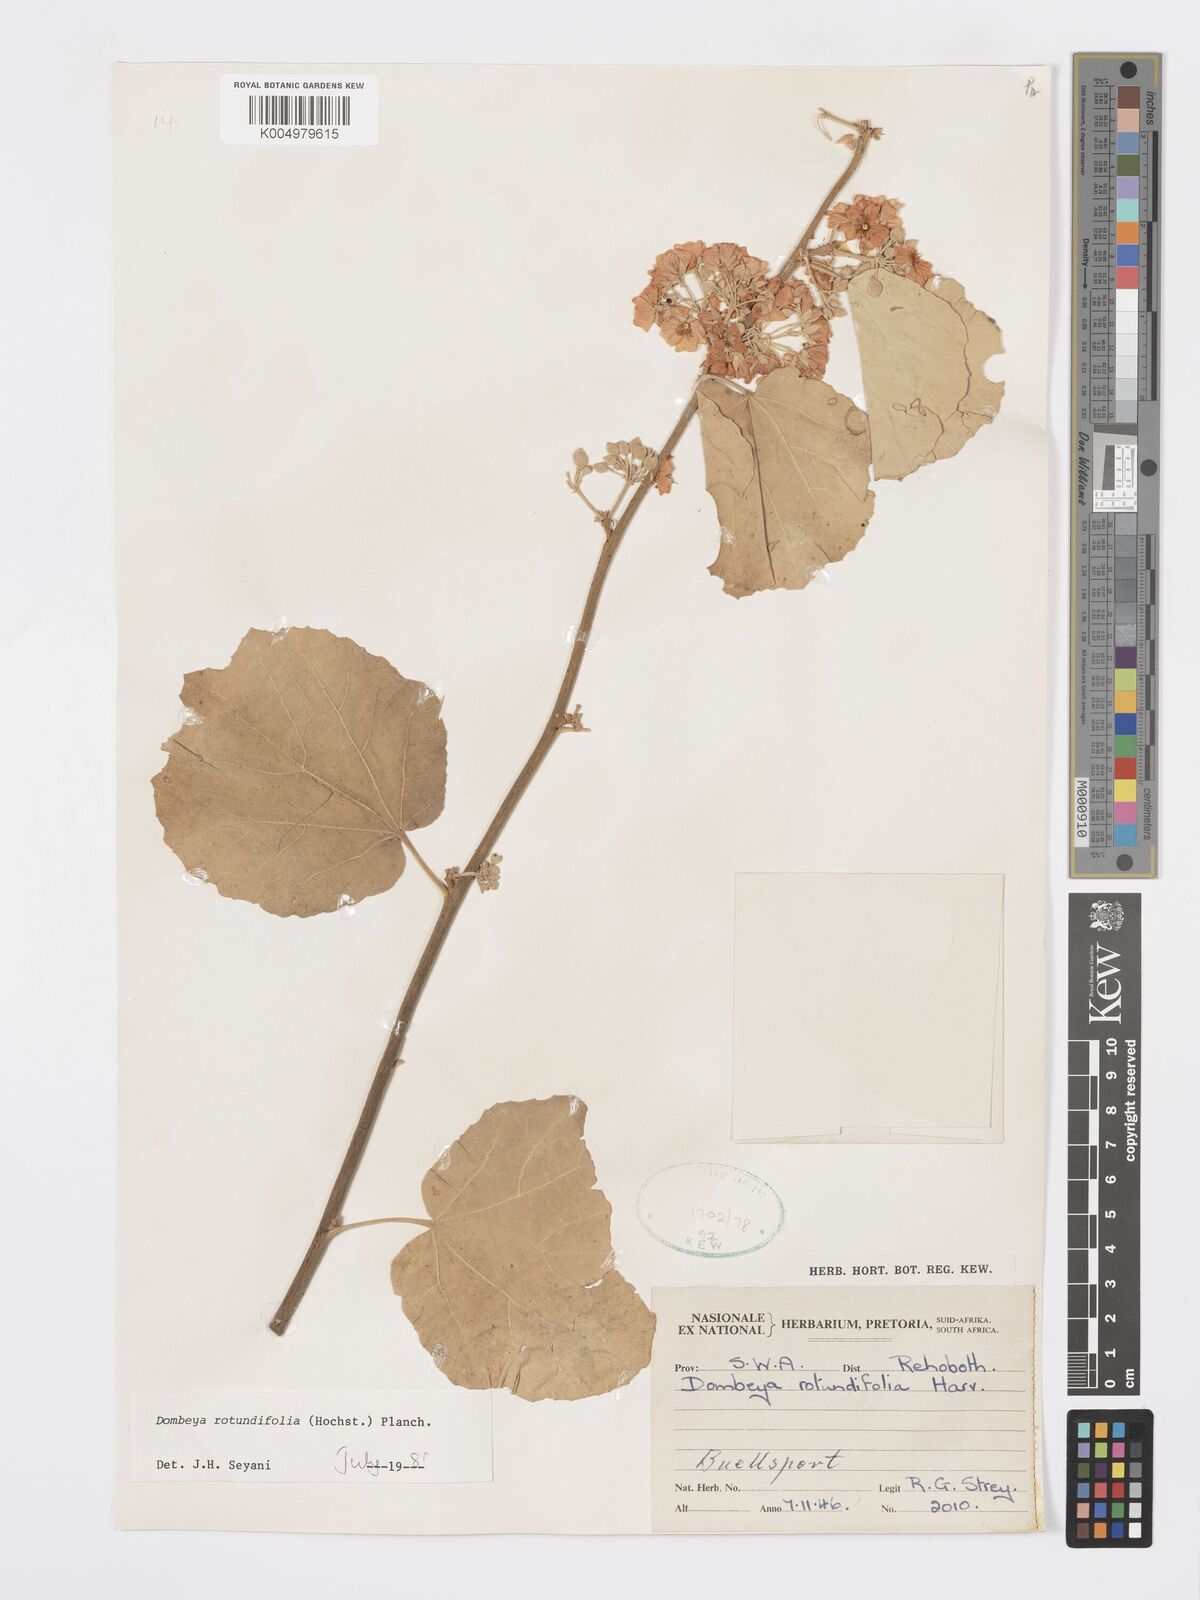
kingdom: Plantae
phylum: Tracheophyta
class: Magnoliopsida
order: Malvales
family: Malvaceae
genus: Dombeya
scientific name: Dombeya rotundifolia
